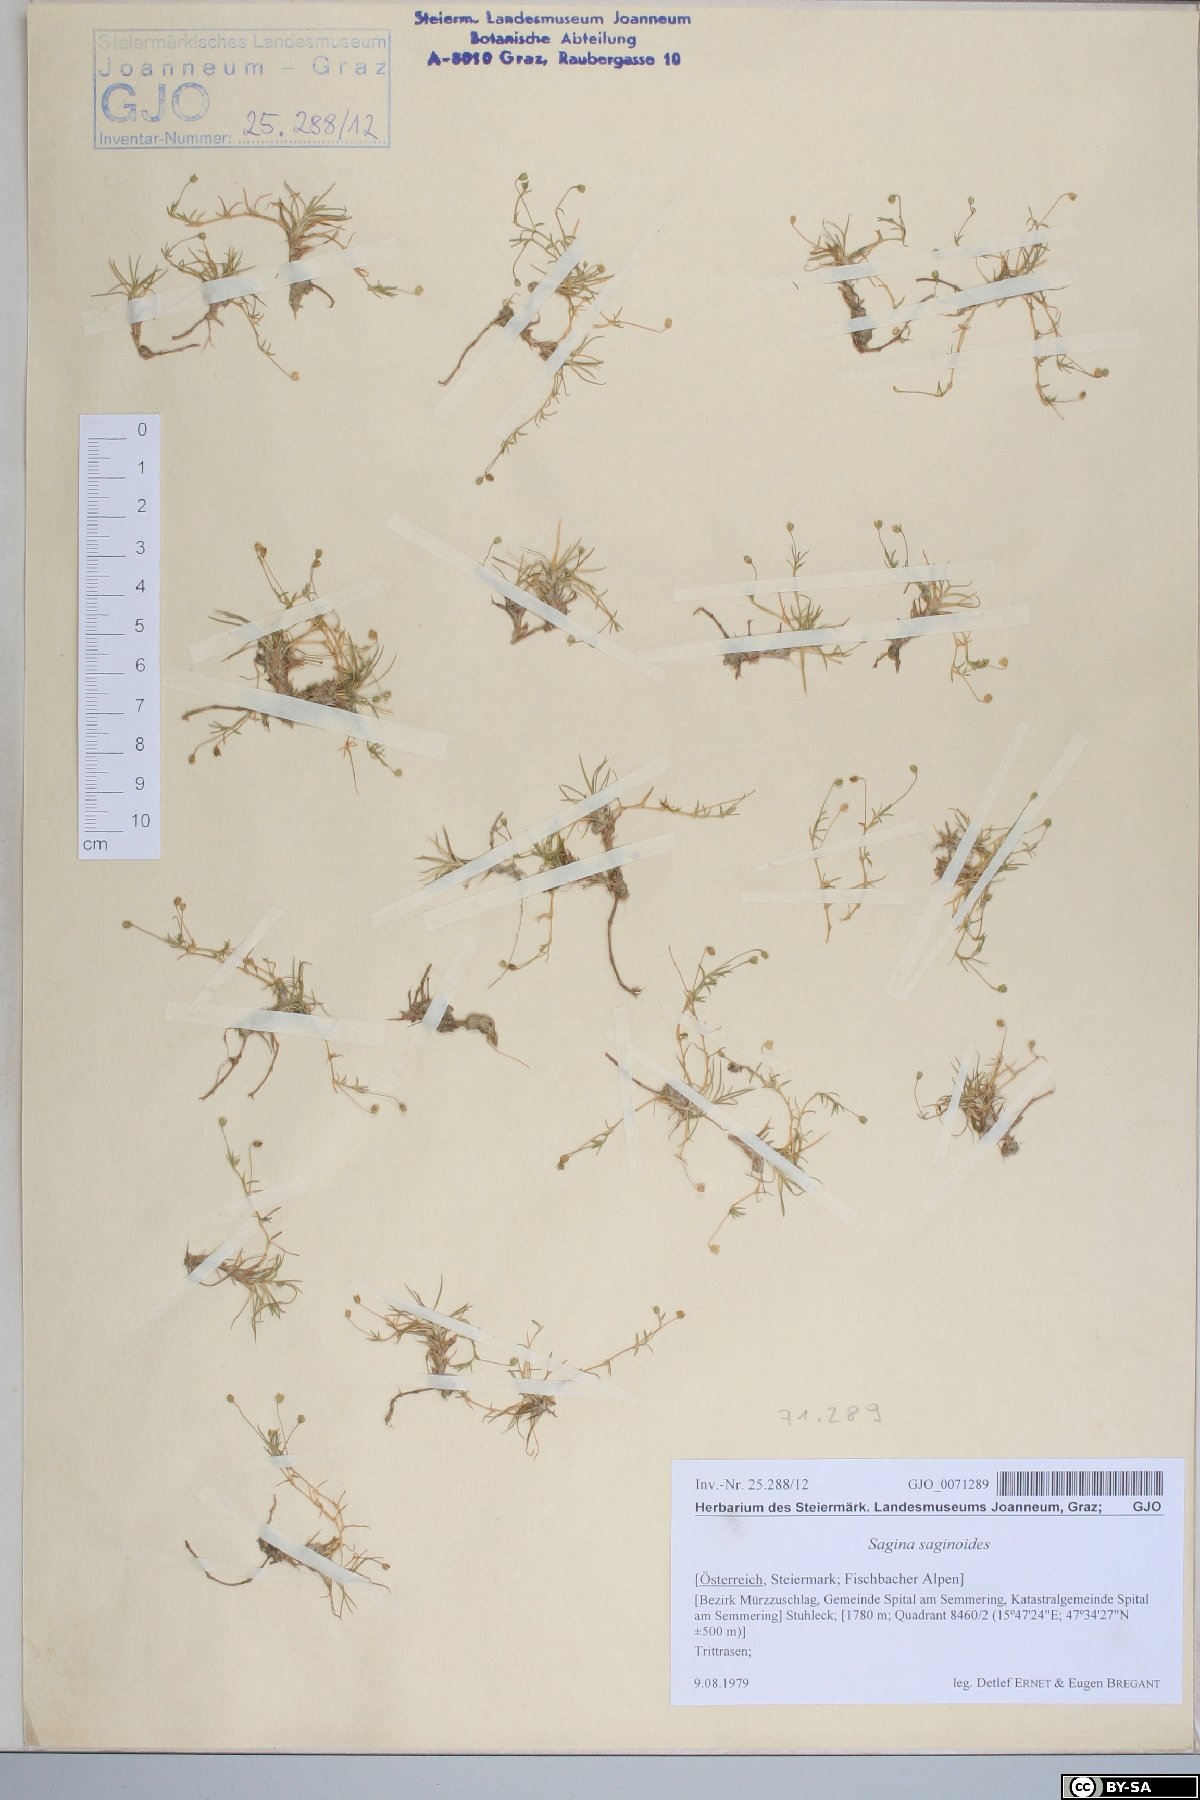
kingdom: Plantae
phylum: Tracheophyta
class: Magnoliopsida
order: Caryophyllales
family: Caryophyllaceae
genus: Sagina
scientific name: Sagina saginoides
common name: Alpine pearlwort
